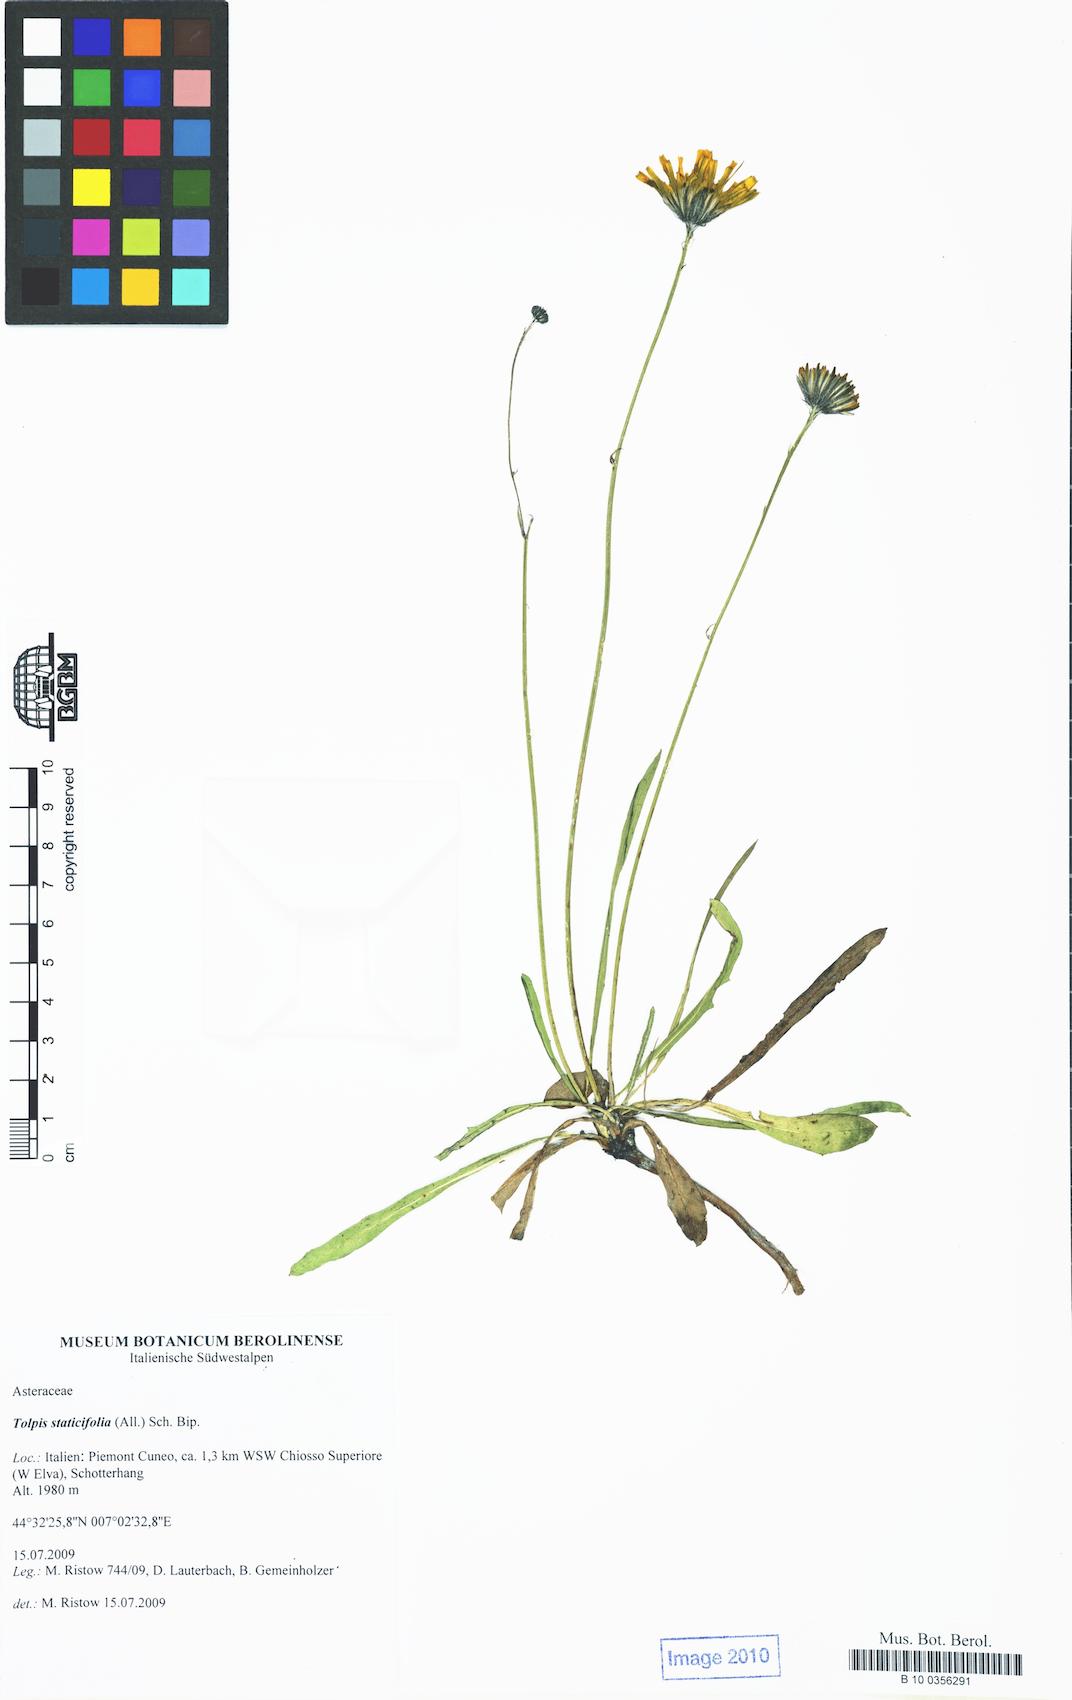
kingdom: Plantae
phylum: Tracheophyta
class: Magnoliopsida
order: Asterales
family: Asteraceae
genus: Tolpis
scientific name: Tolpis staticifolia
